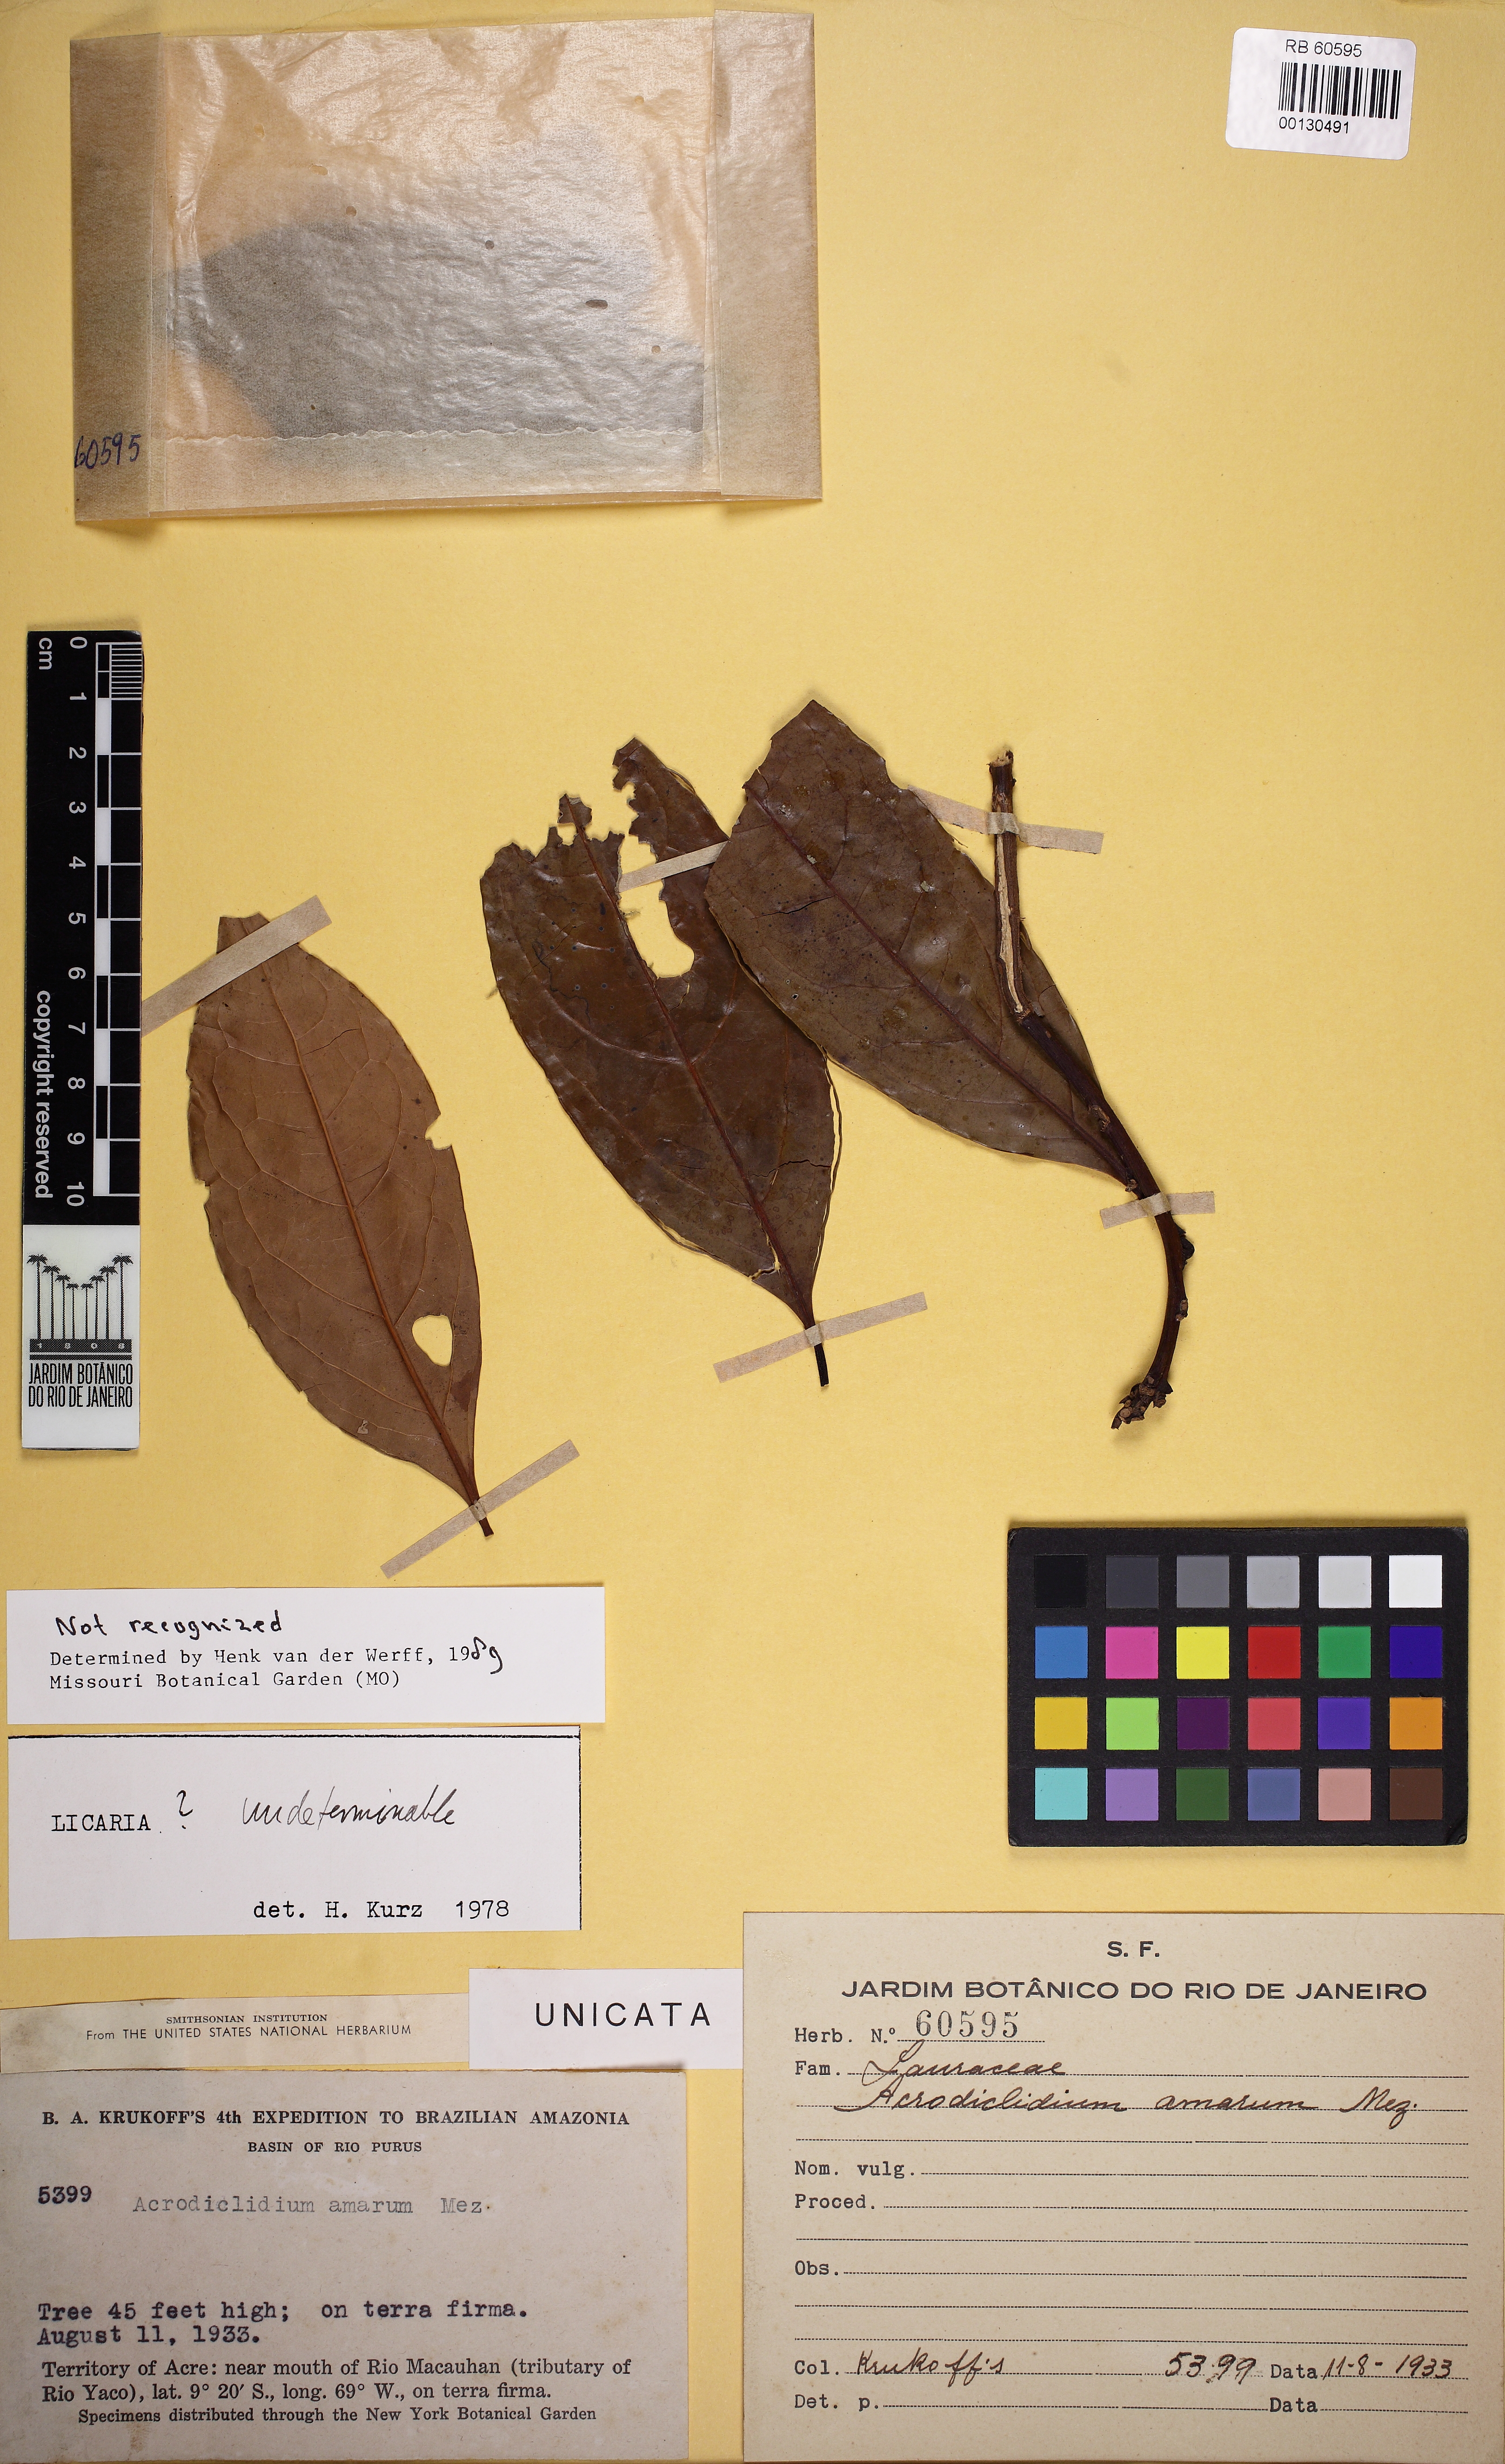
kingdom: Plantae
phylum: Tracheophyta
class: Magnoliopsida
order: Laurales
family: Lauraceae
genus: Aiouea
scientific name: Aiouea
